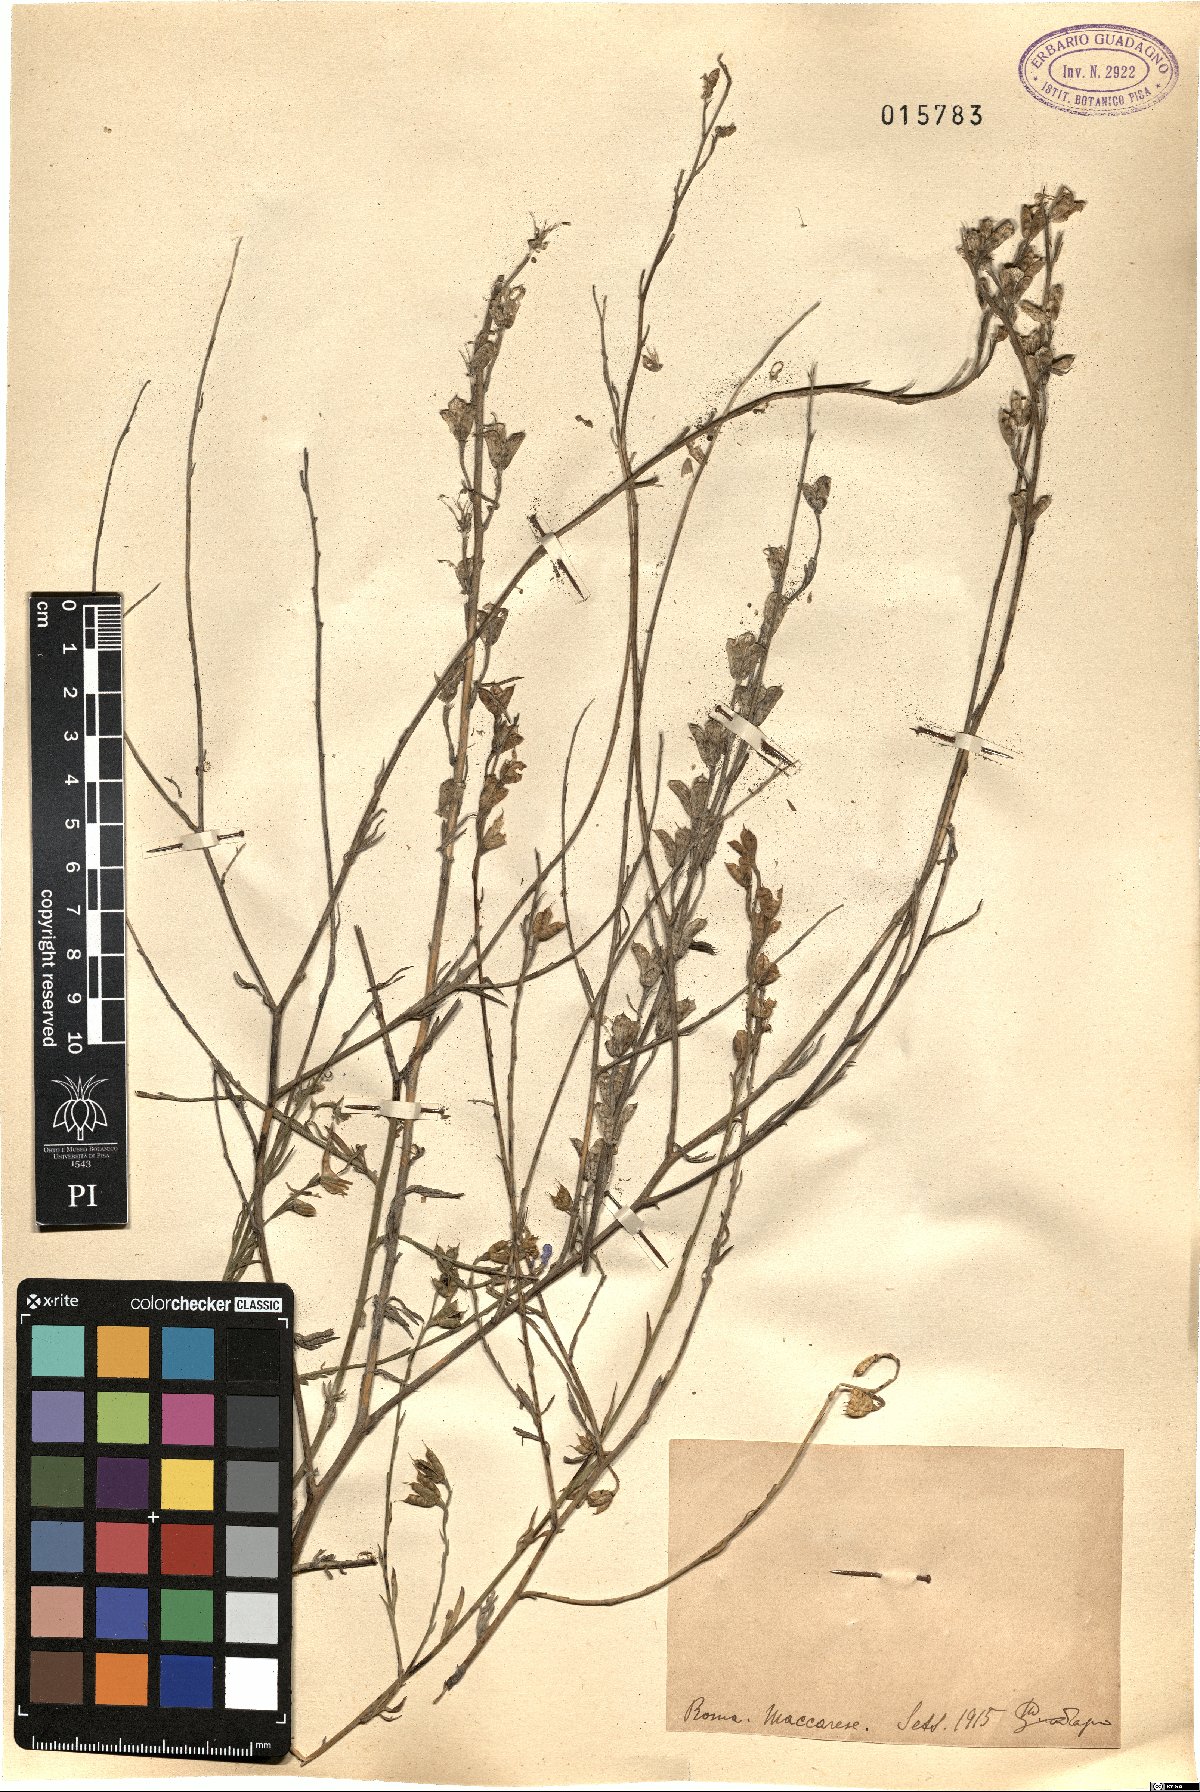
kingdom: Plantae
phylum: Tracheophyta
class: Magnoliopsida
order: Ranunculales
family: Ranunculaceae
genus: Delphinium
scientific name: Delphinium
